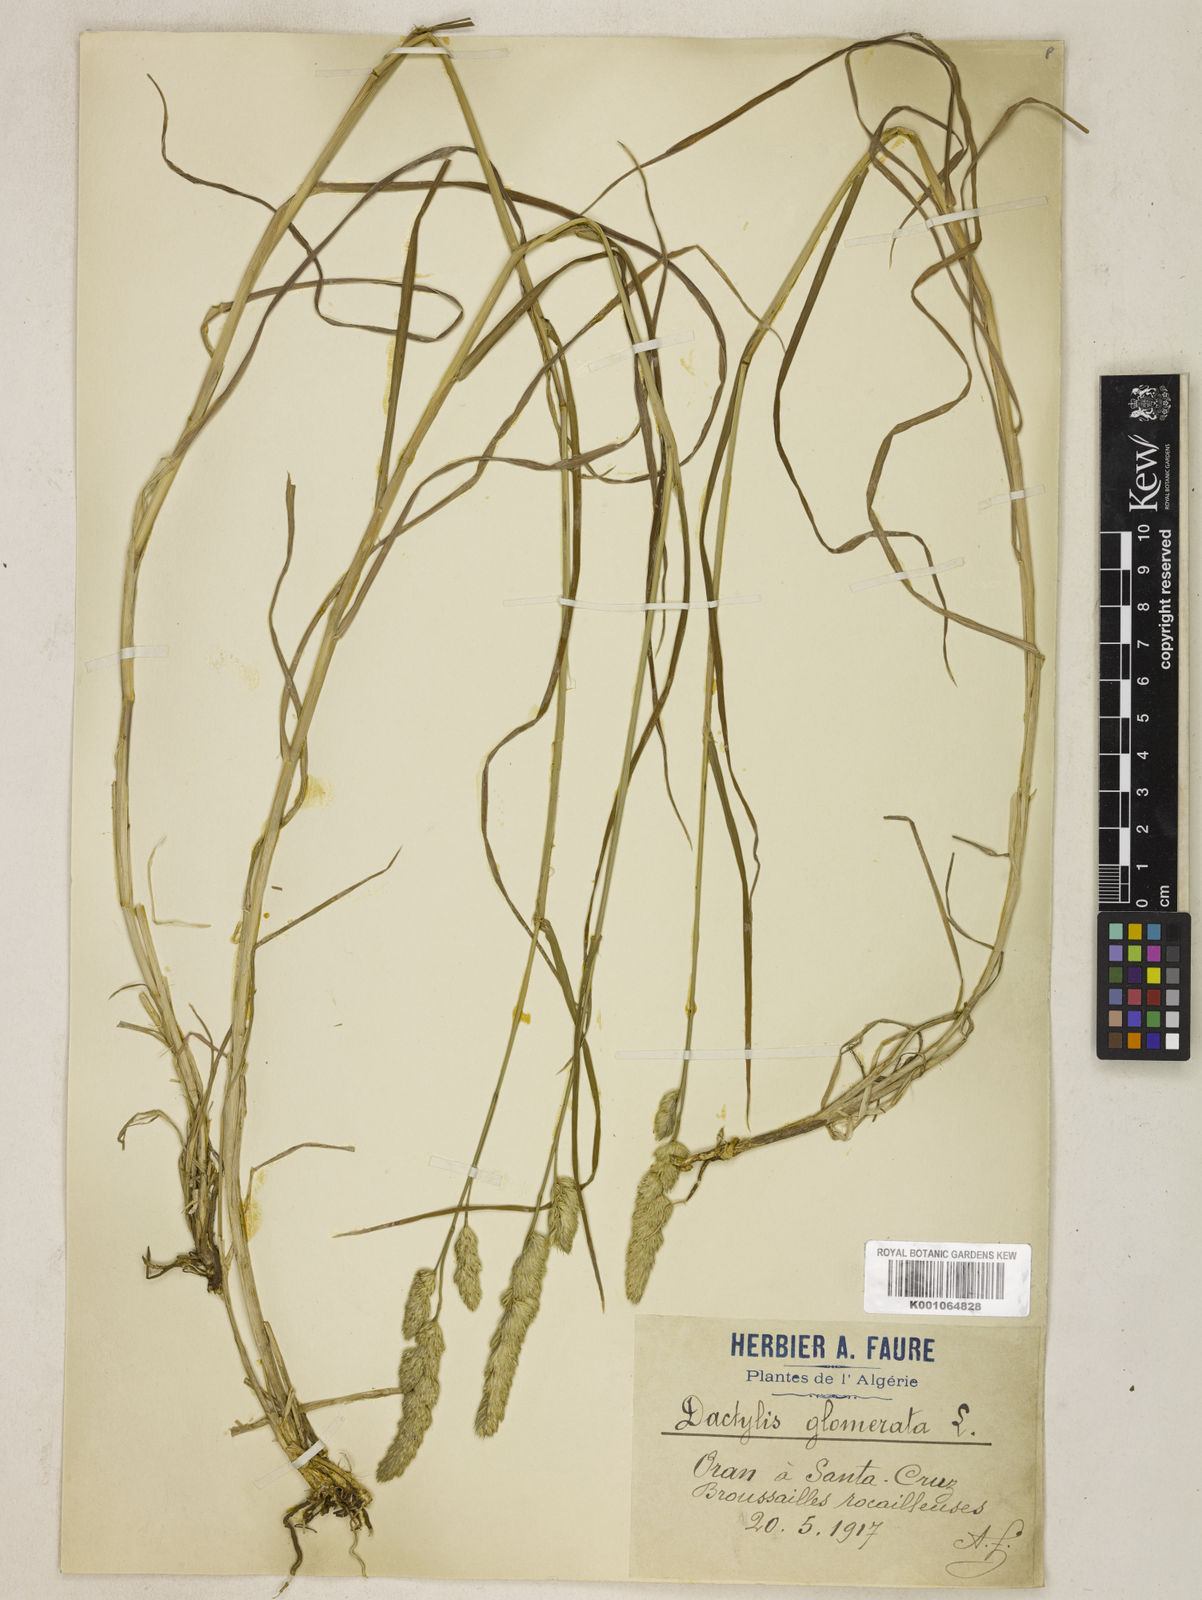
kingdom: Plantae
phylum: Tracheophyta
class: Liliopsida
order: Poales
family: Poaceae
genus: Dactylis
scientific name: Dactylis glomerata
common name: Orchardgrass
